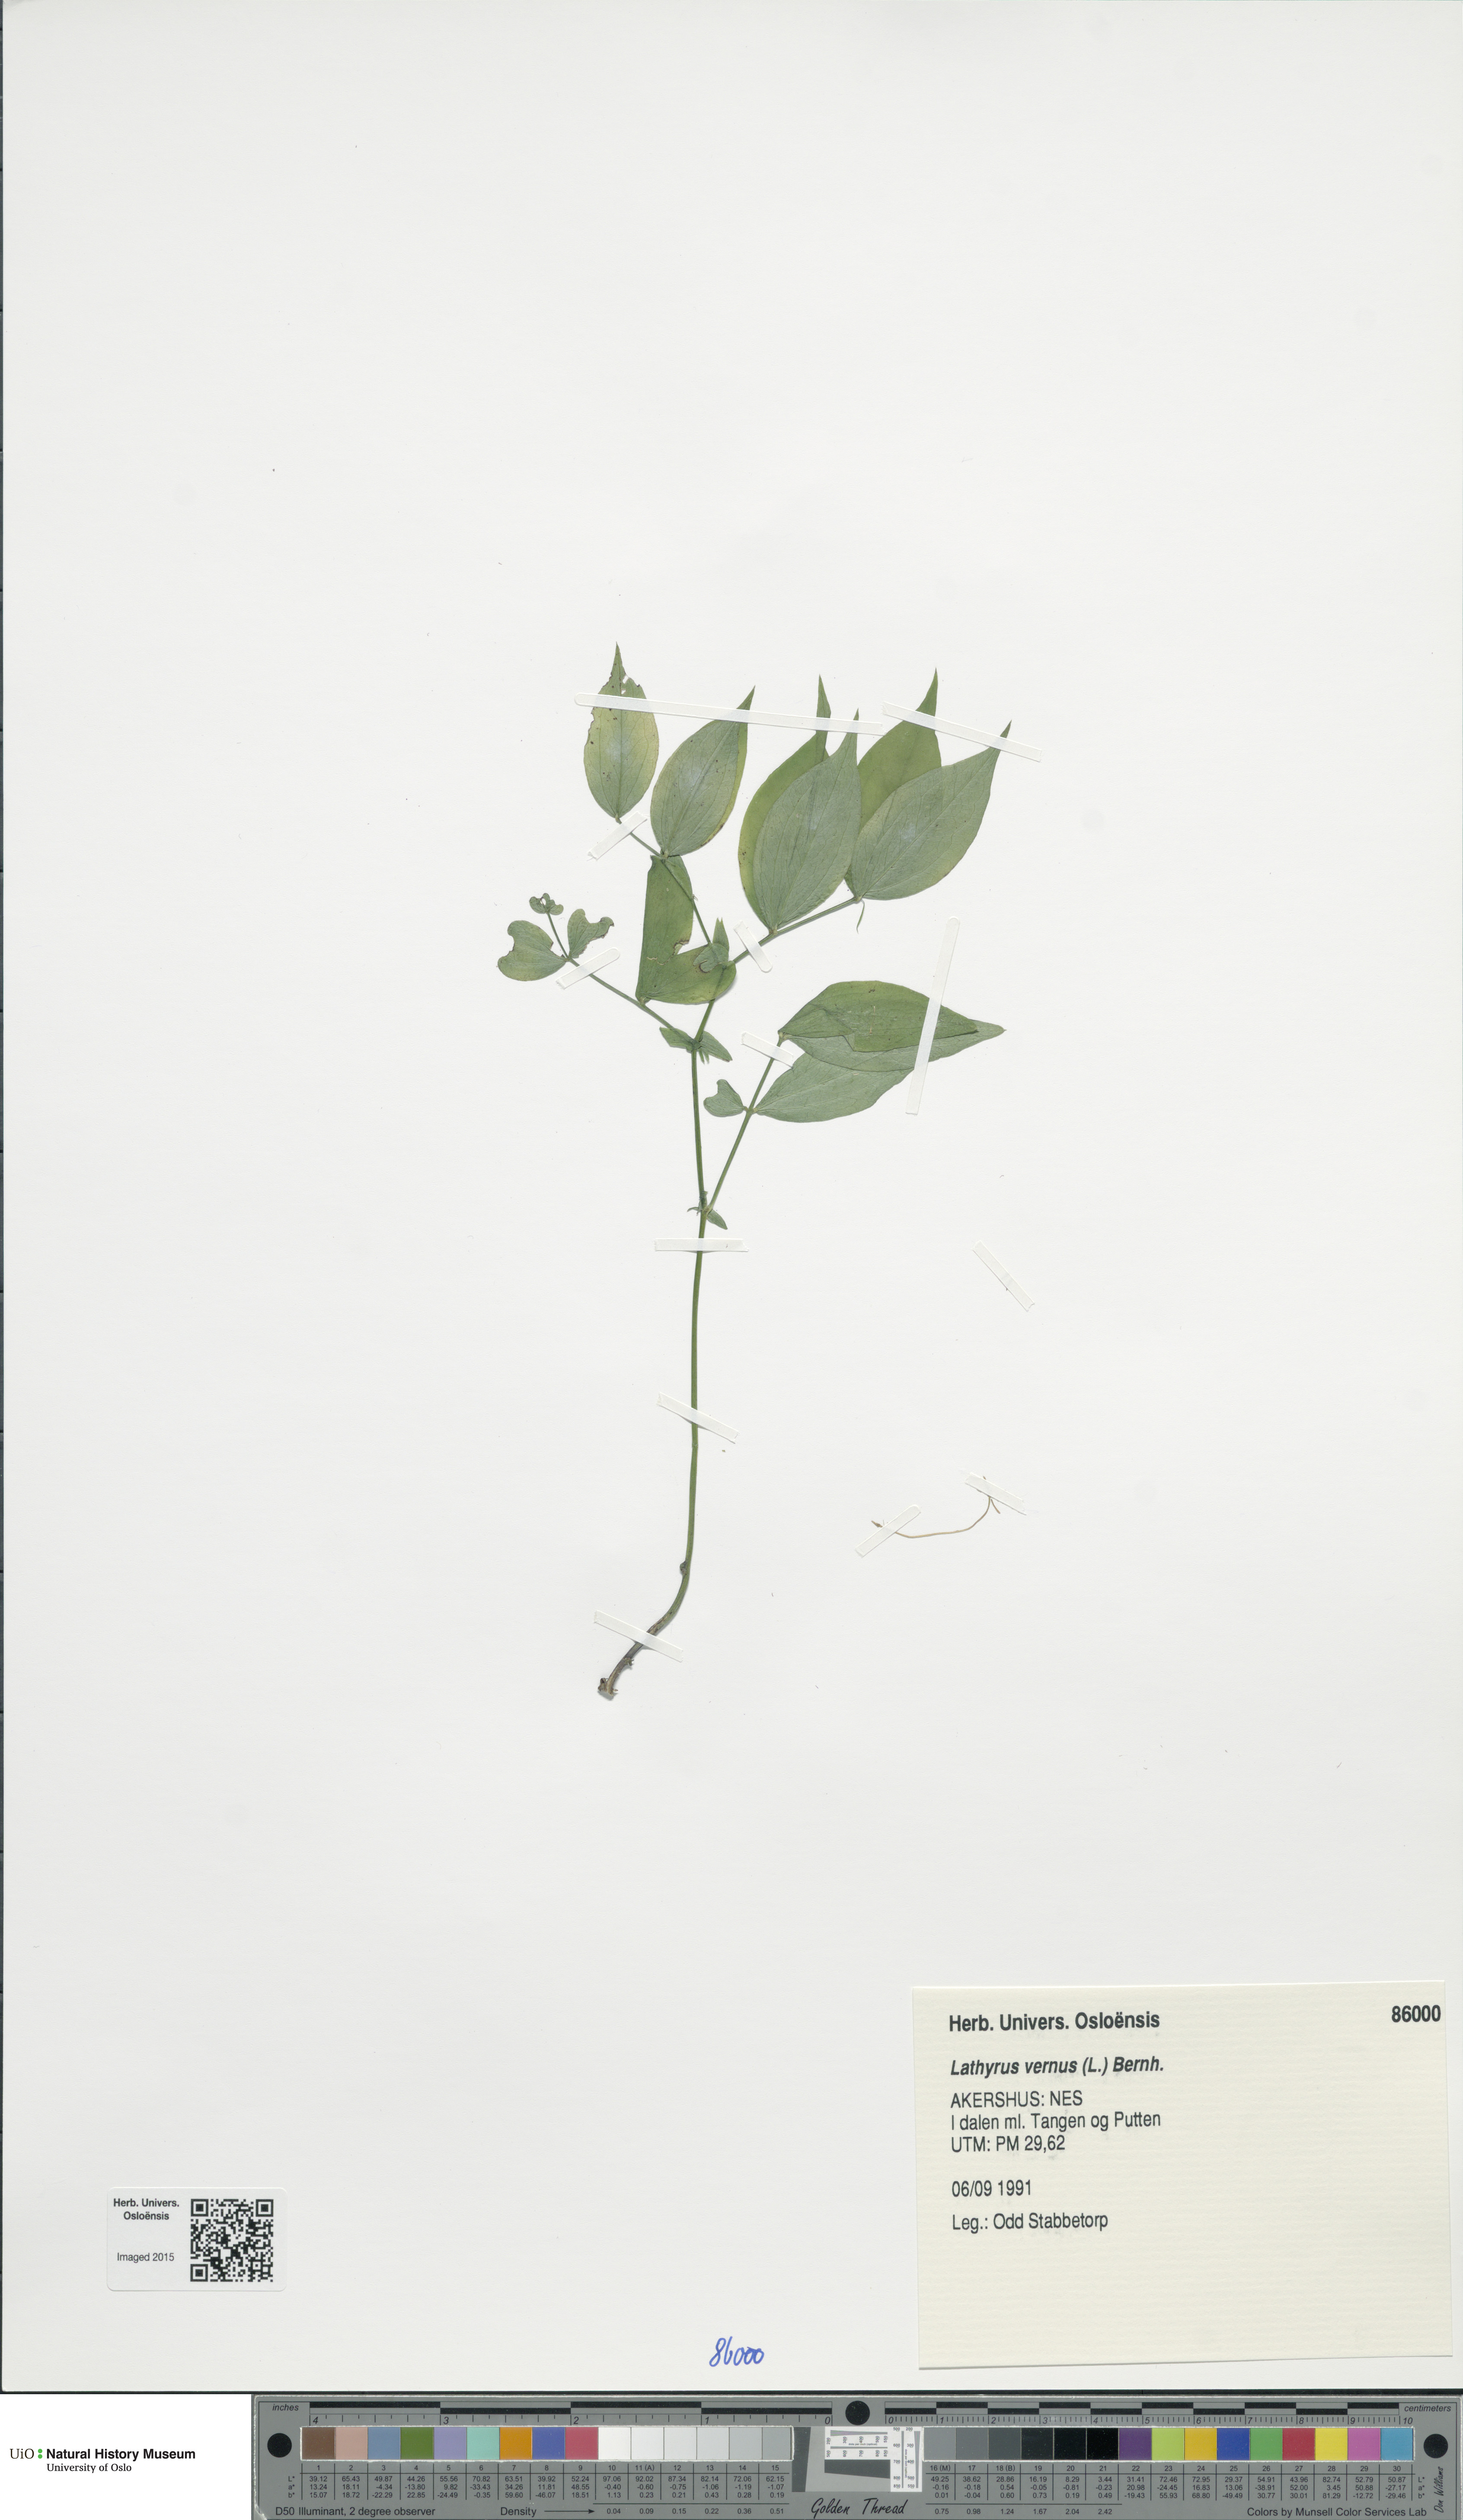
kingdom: Plantae
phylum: Tracheophyta
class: Magnoliopsida
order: Fabales
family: Fabaceae
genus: Lathyrus
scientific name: Lathyrus vernus
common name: Spring pea
